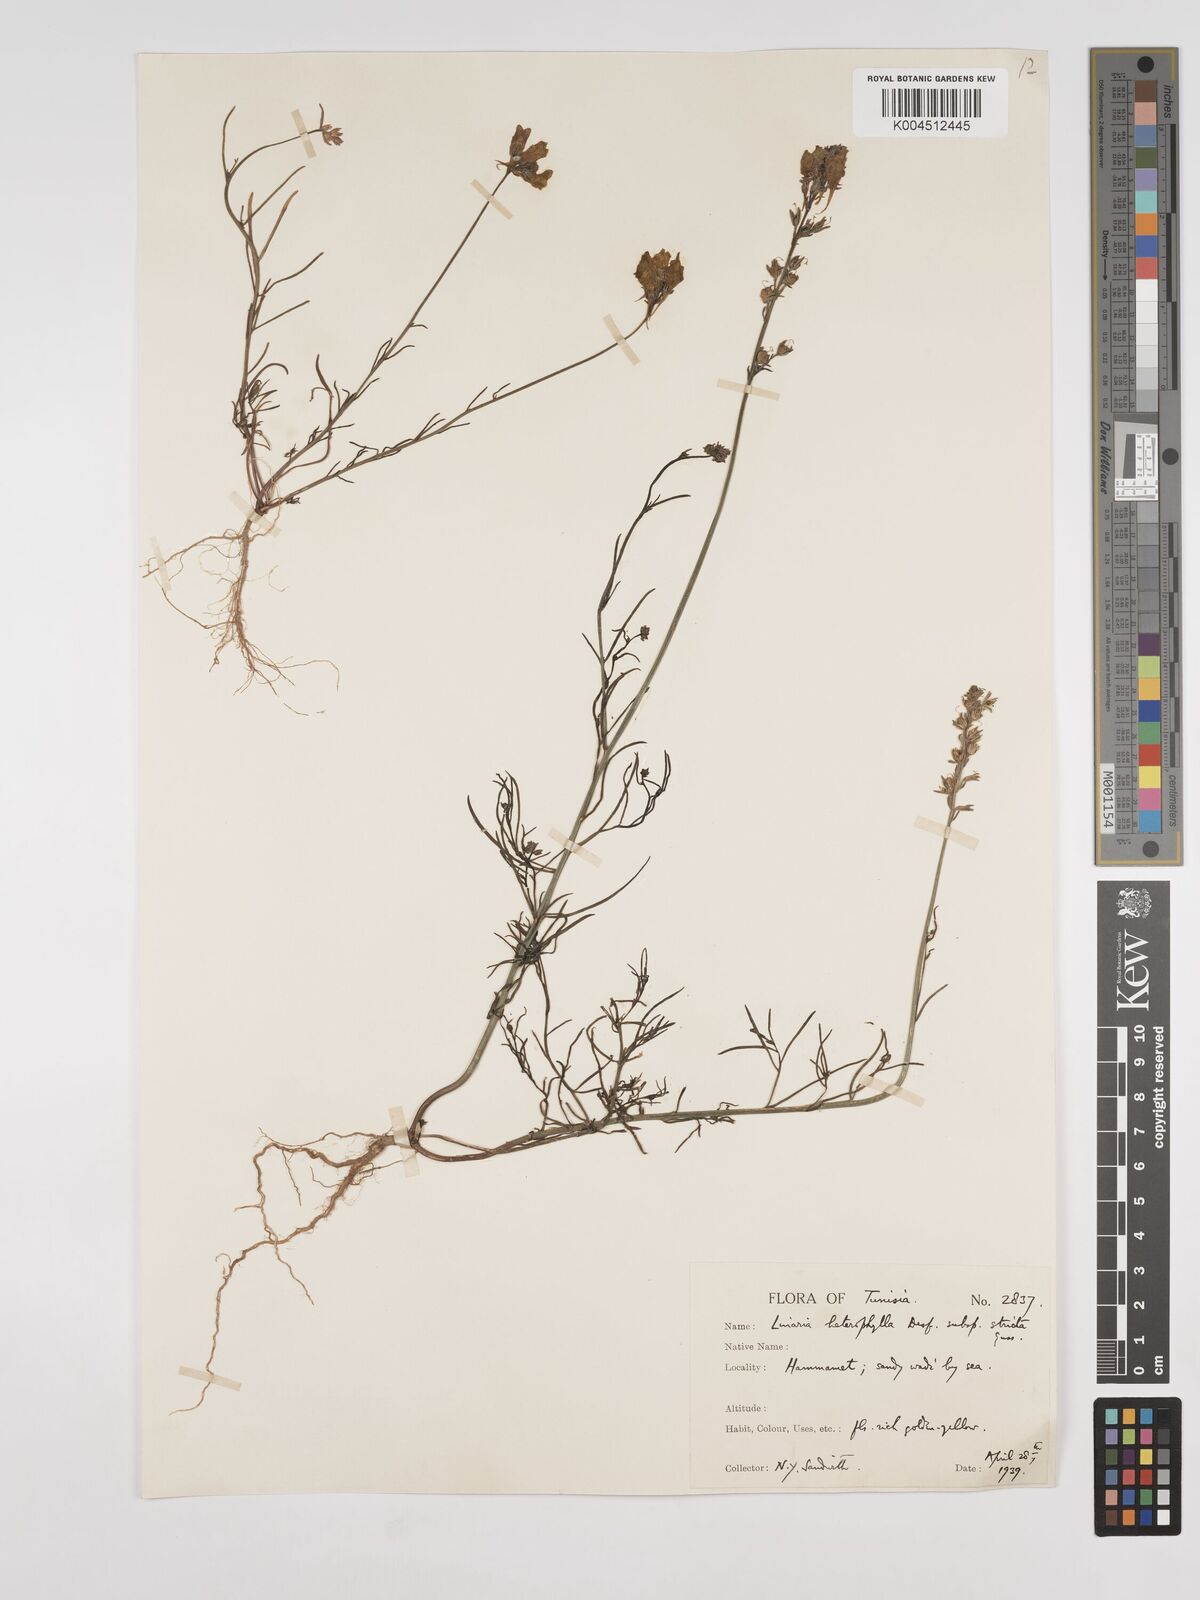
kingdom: Plantae
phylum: Tracheophyta
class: Magnoliopsida
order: Lamiales
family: Plantaginaceae
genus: Linaria
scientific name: Linaria multicaulis
